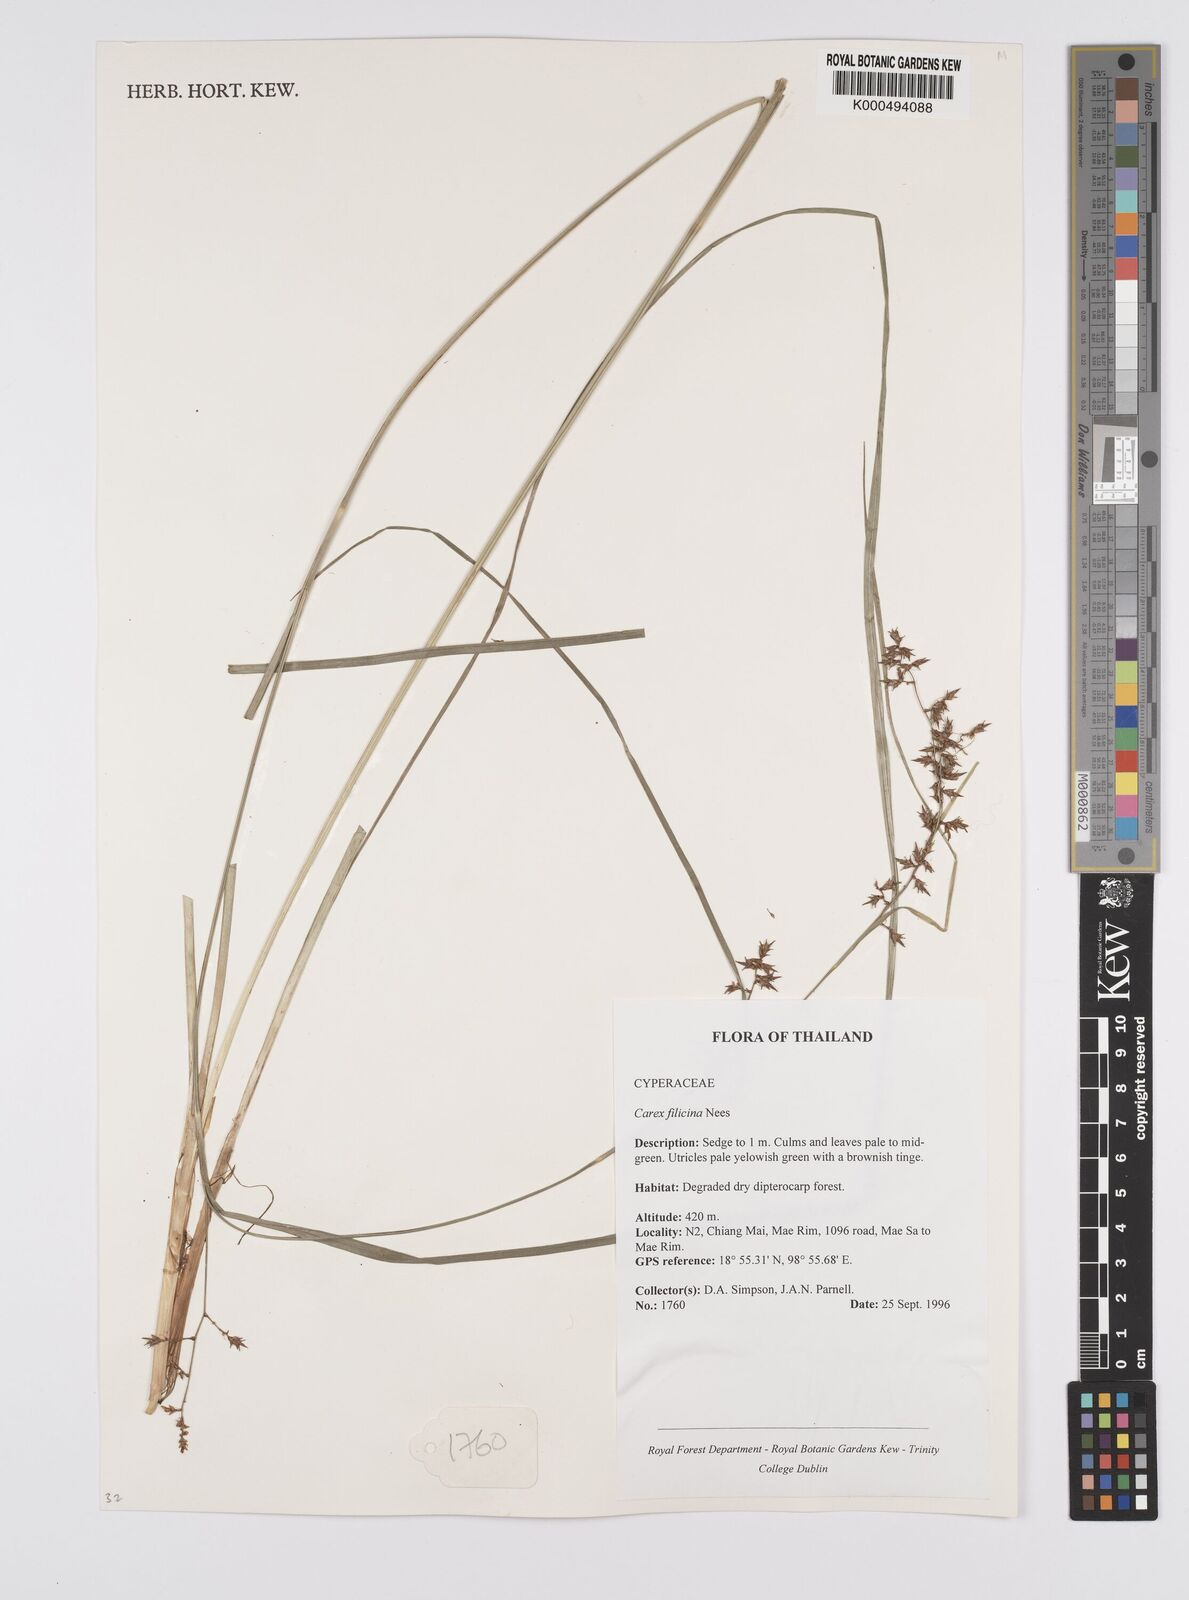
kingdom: Plantae
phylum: Tracheophyta
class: Liliopsida
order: Poales
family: Cyperaceae
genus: Carex
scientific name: Carex baccans
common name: Crimson seeded sedge
